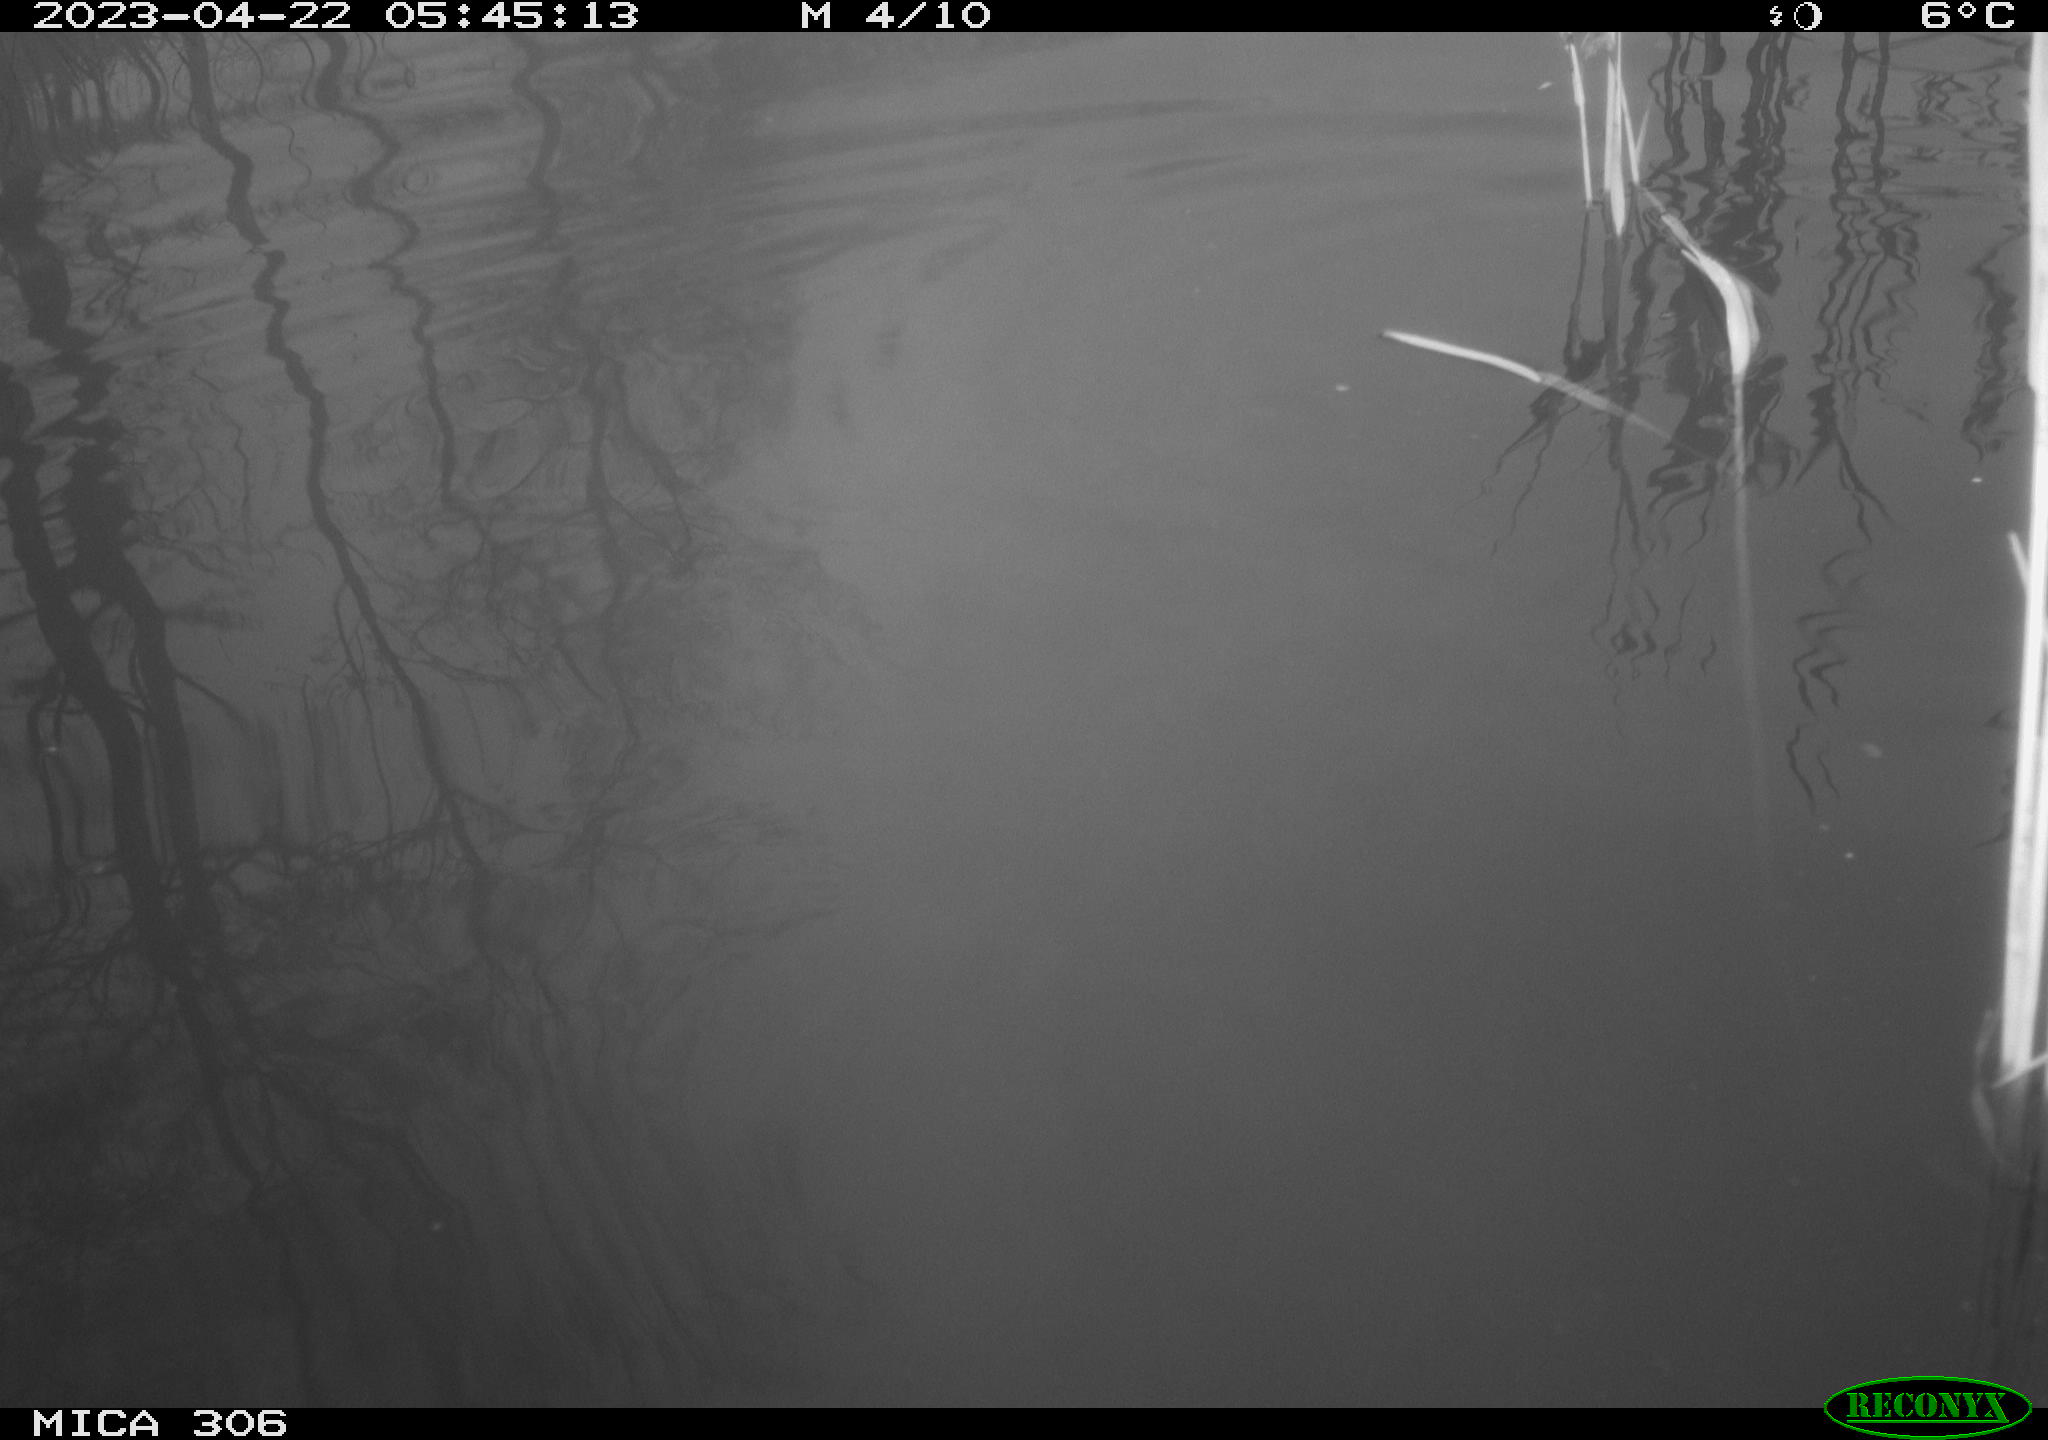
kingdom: Animalia
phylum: Chordata
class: Aves
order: Anseriformes
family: Anatidae
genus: Anas
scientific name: Anas
